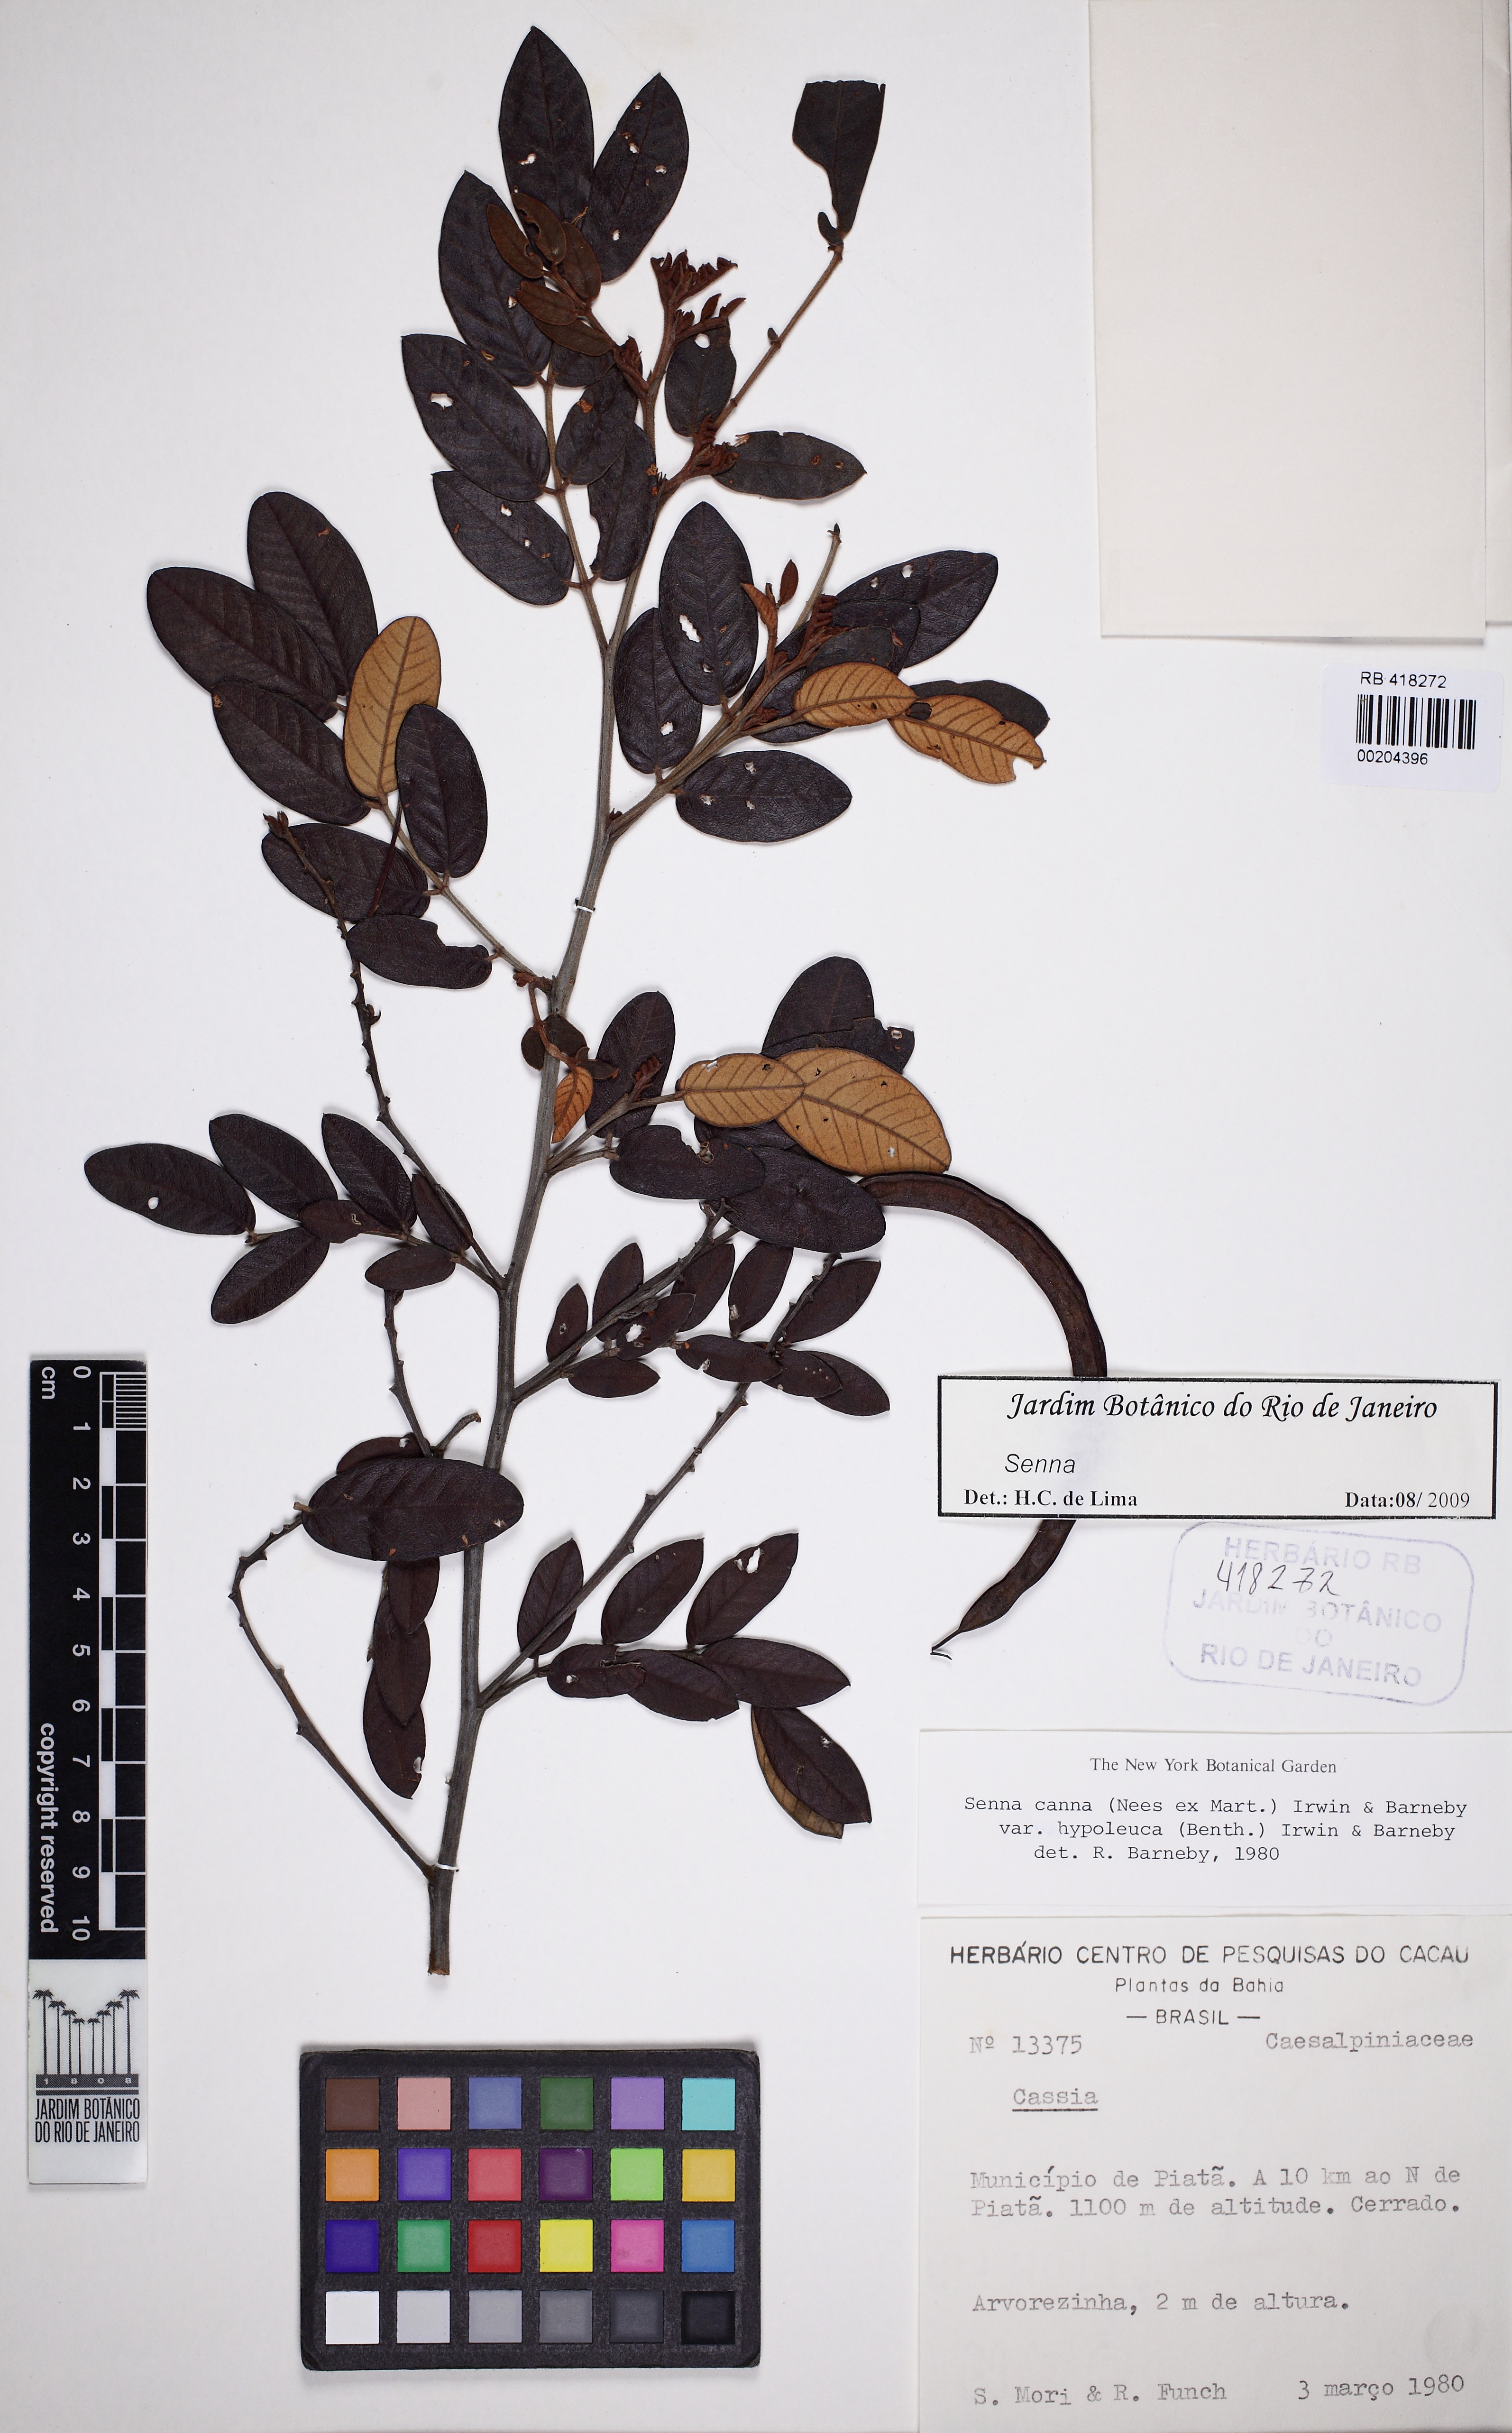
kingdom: Plantae
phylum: Tracheophyta
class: Magnoliopsida
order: Fabales
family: Fabaceae
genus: Senna
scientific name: Senna cana
